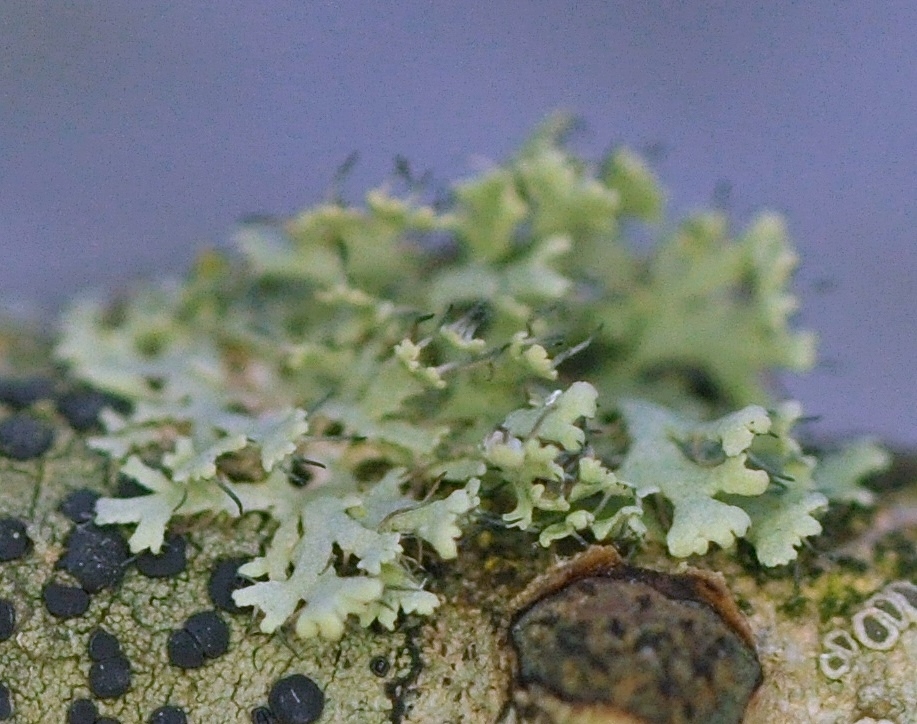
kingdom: Fungi
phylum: Ascomycota
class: Lecanoromycetes
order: Caliciales
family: Physciaceae
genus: Physcia
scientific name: Physcia tenella
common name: spæd rosetlav
